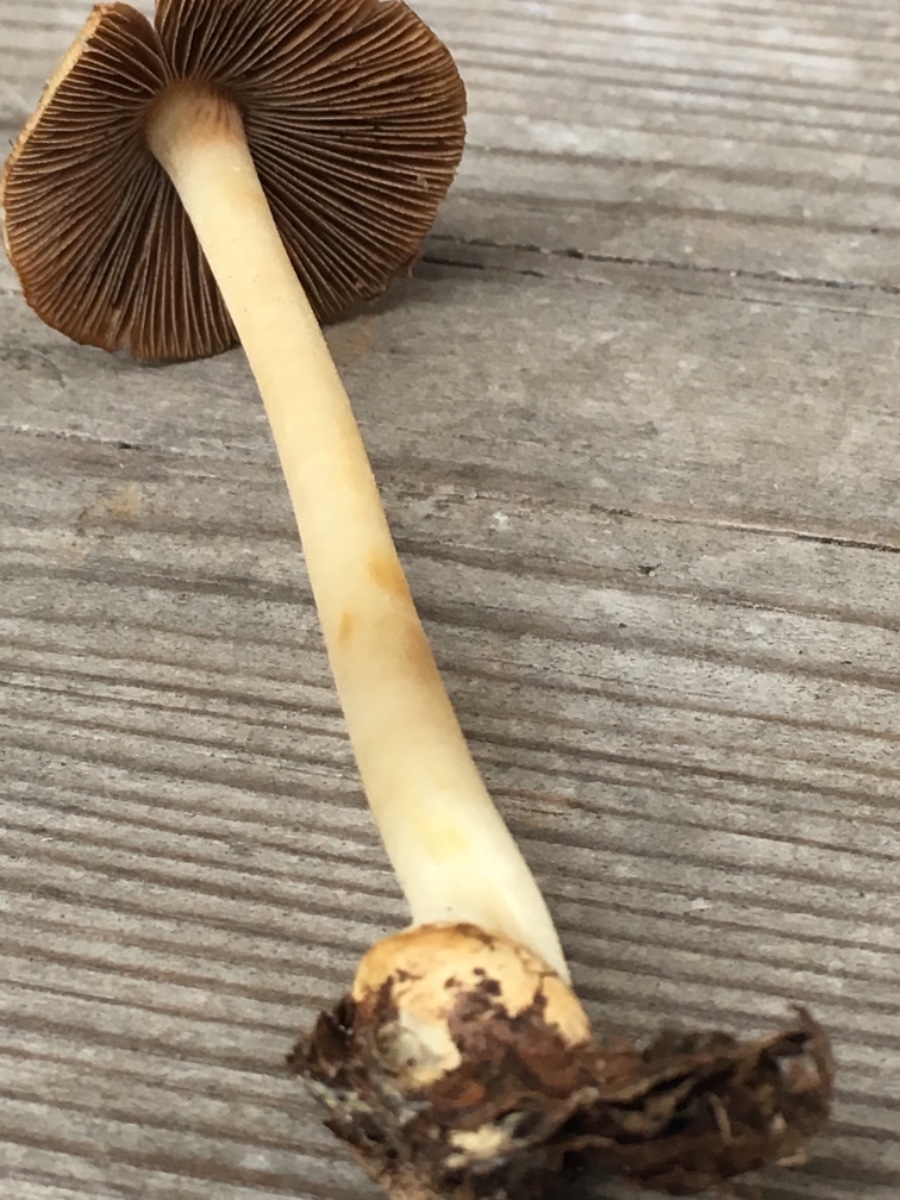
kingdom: Fungi
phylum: Basidiomycota
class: Agaricomycetes
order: Agaricales
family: Inocybaceae
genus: Inocybe
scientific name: Inocybe
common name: trævlhat
